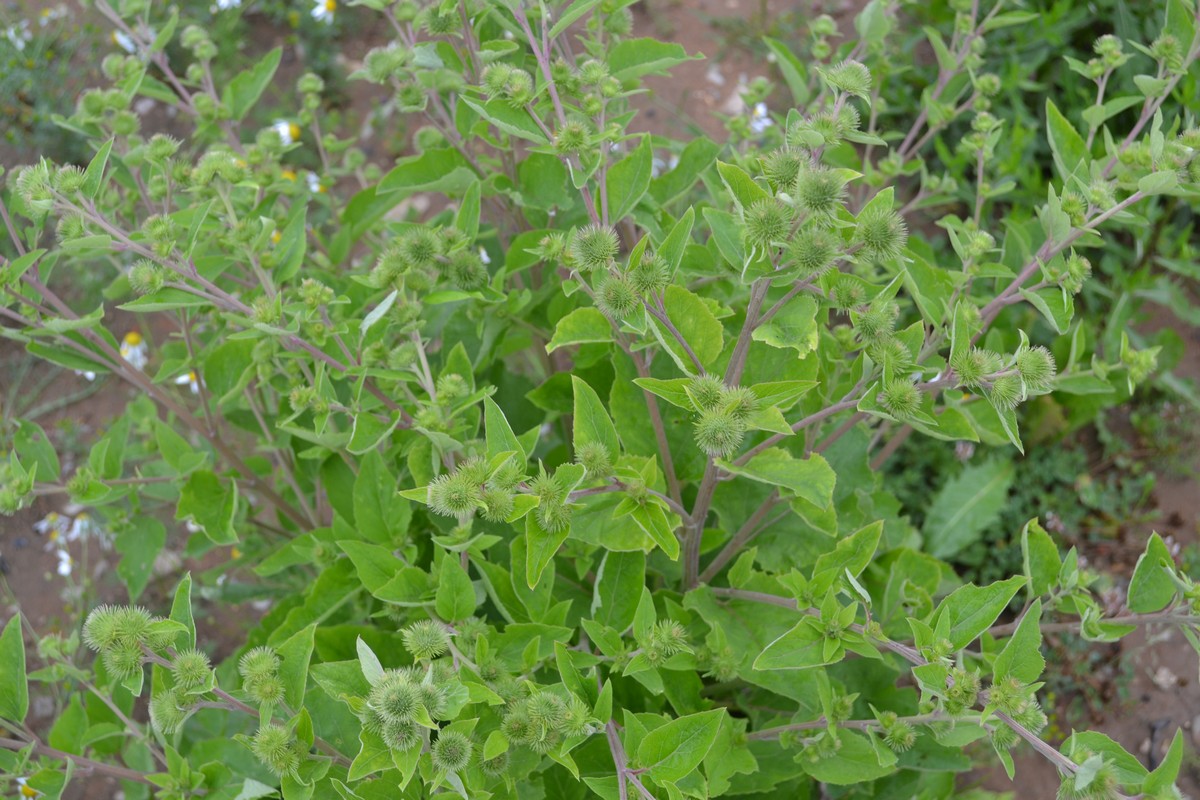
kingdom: Plantae
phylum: Tracheophyta
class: Magnoliopsida
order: Asterales
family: Asteraceae
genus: Arctium
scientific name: Arctium minus
